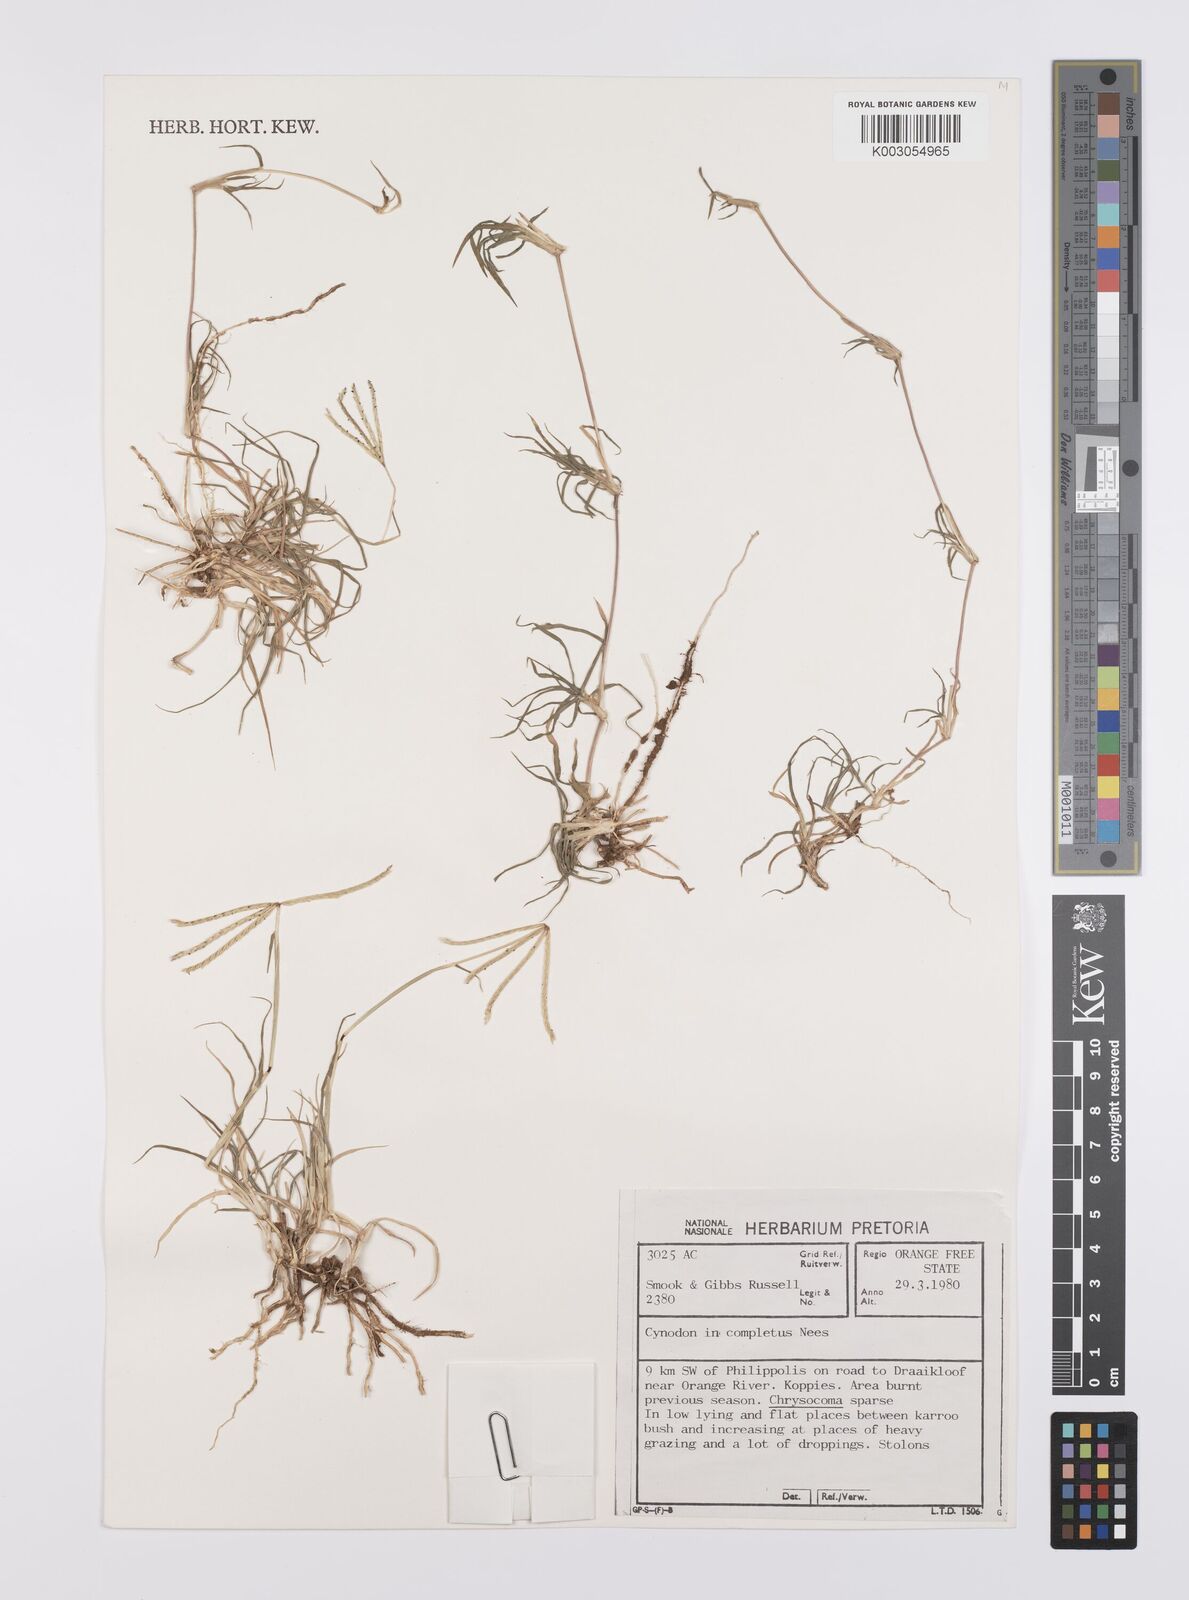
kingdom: Plantae
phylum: Tracheophyta
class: Liliopsida
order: Poales
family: Poaceae
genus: Cynodon
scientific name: Cynodon incompletus
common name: African bermuda-grass
